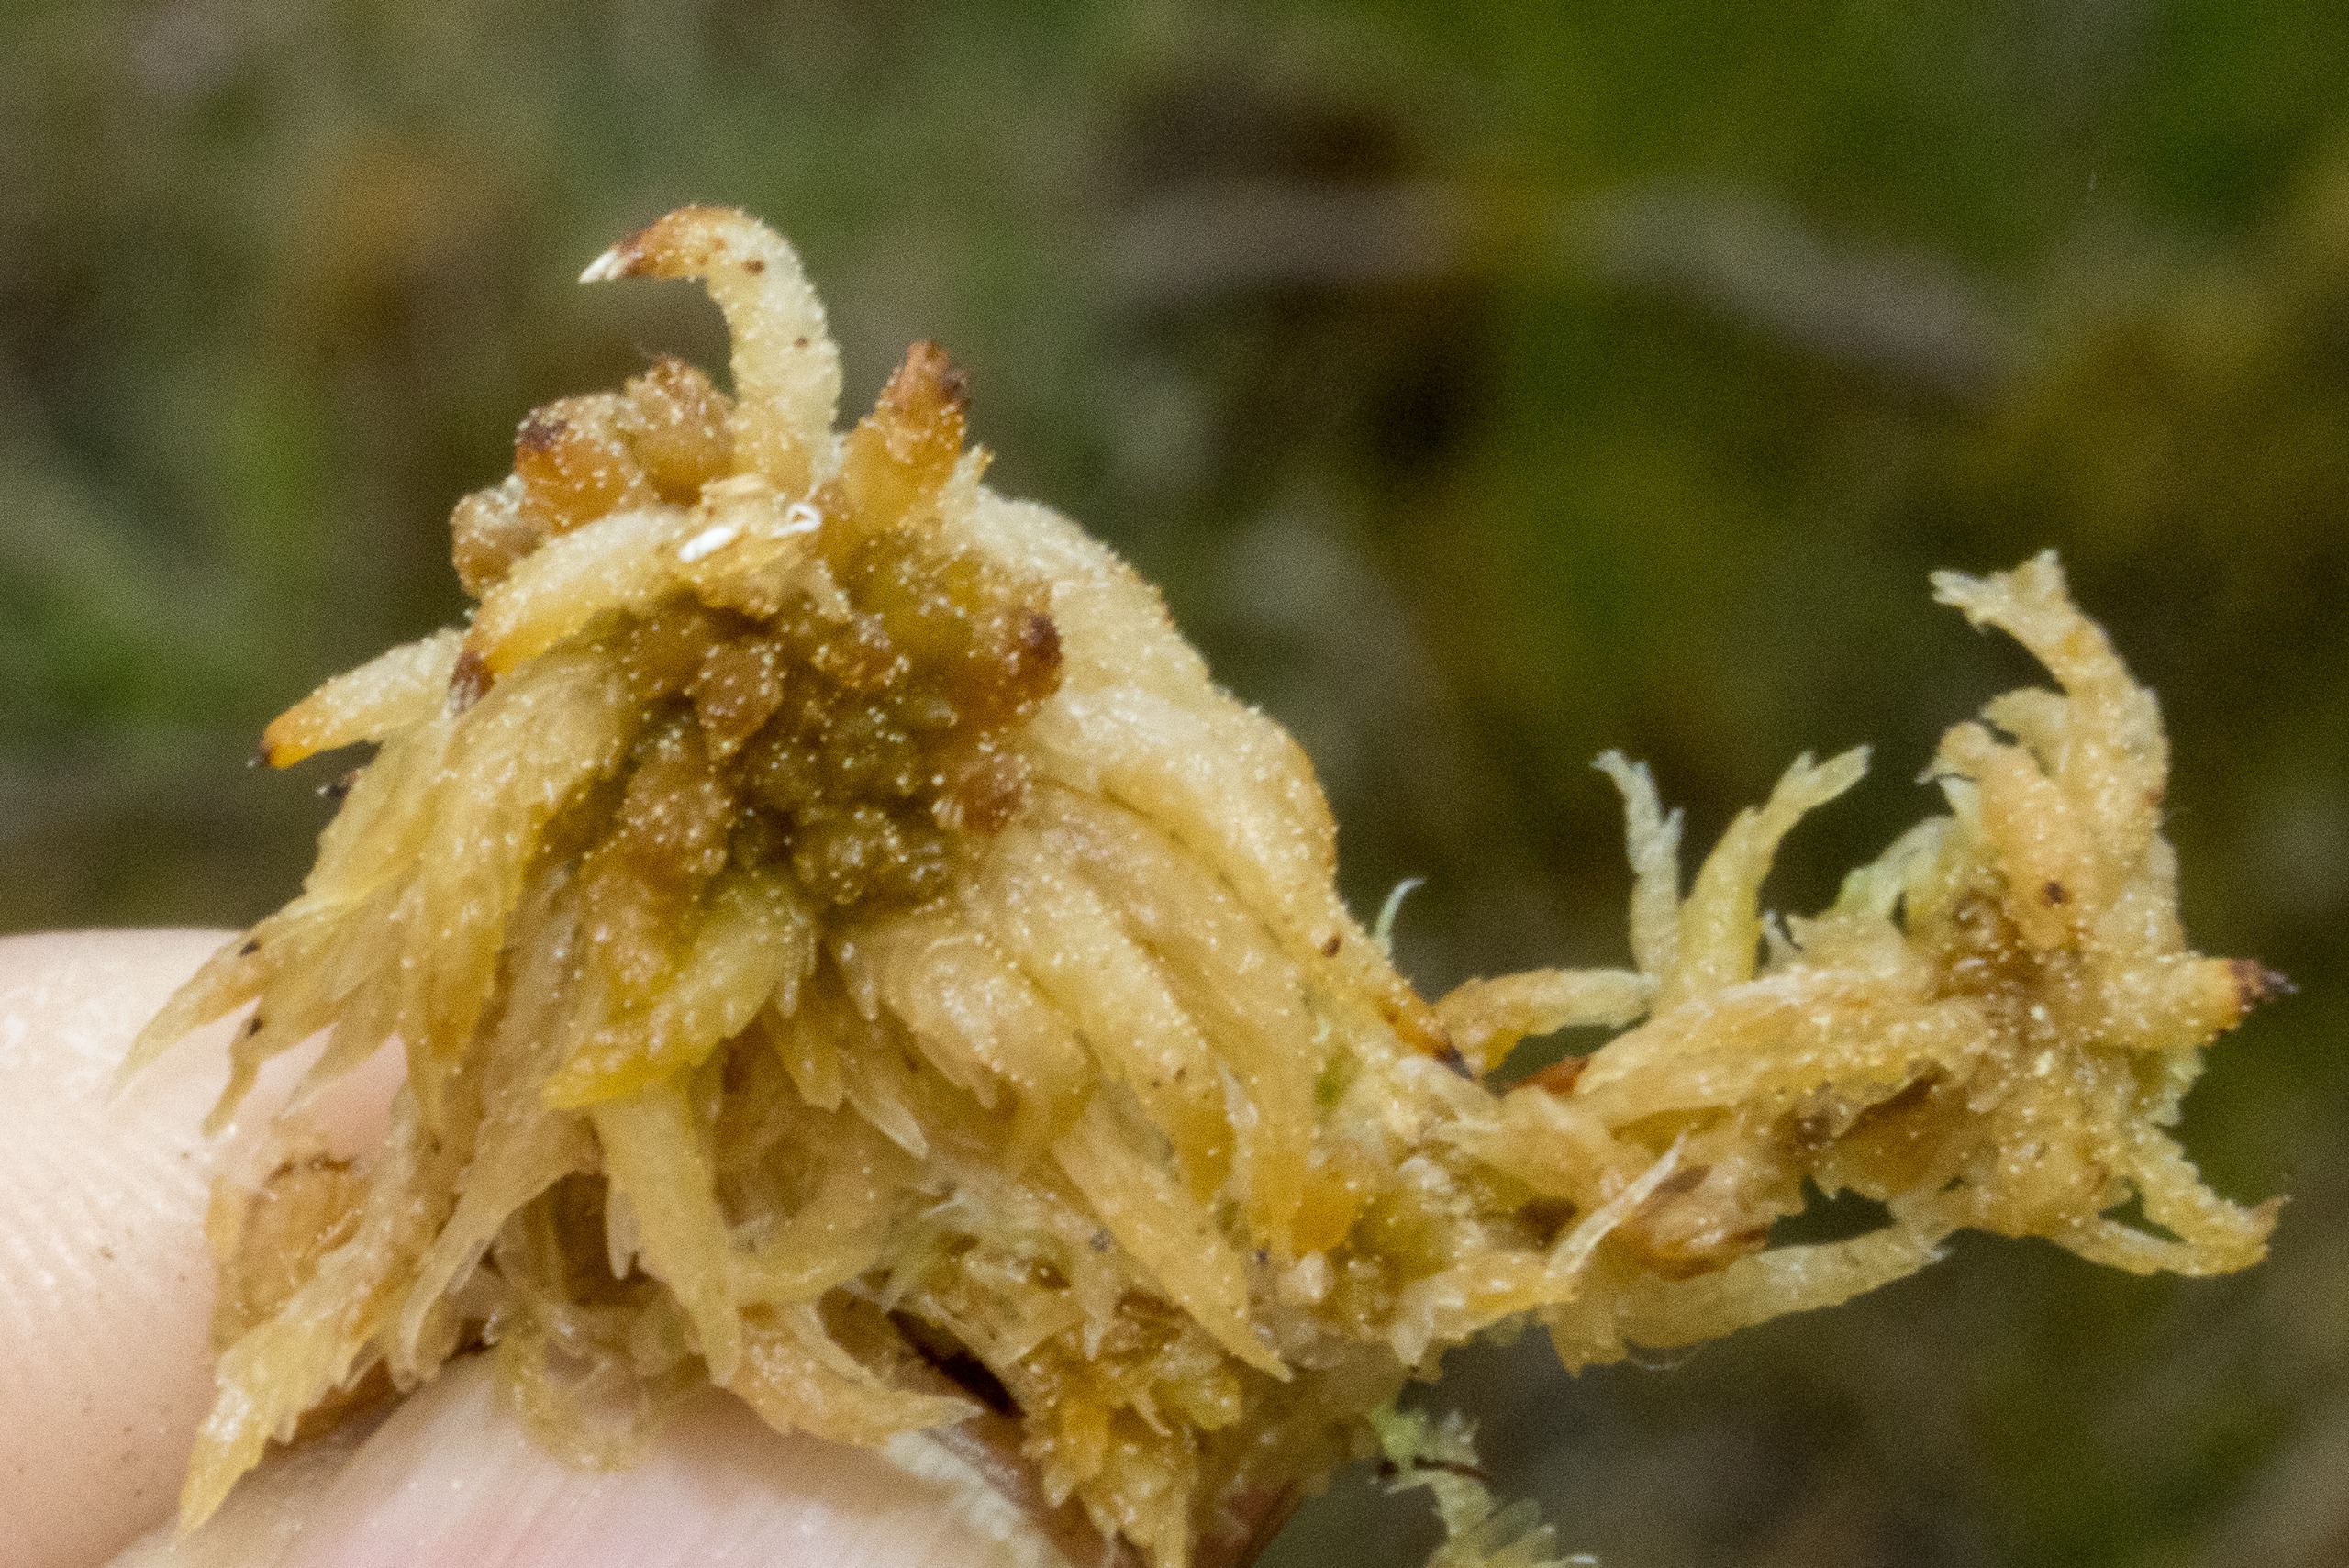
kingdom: Plantae
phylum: Bryophyta
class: Sphagnopsida
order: Sphagnales
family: Sphagnaceae
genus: Sphagnum
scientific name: Sphagnum palustre
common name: Almindelig tørvemos
